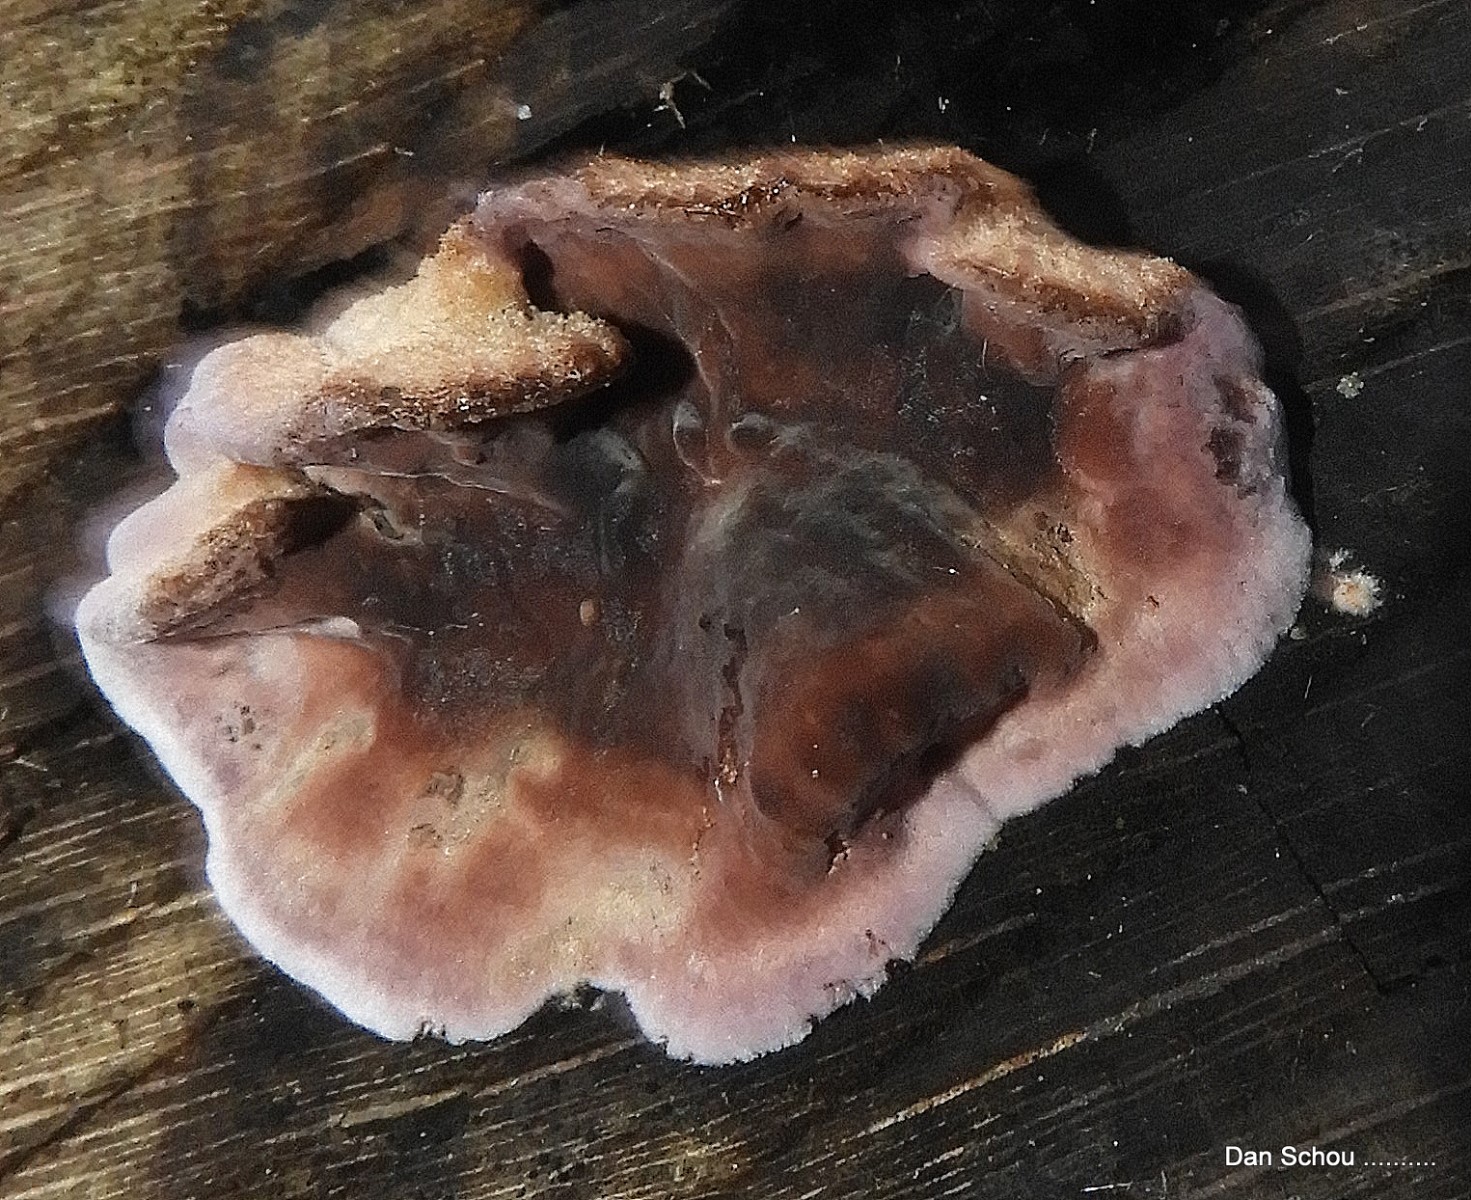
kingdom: Fungi
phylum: Basidiomycota
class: Agaricomycetes
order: Agaricales
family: Cyphellaceae
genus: Chondrostereum
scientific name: Chondrostereum purpureum
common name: purpurlædersvamp
